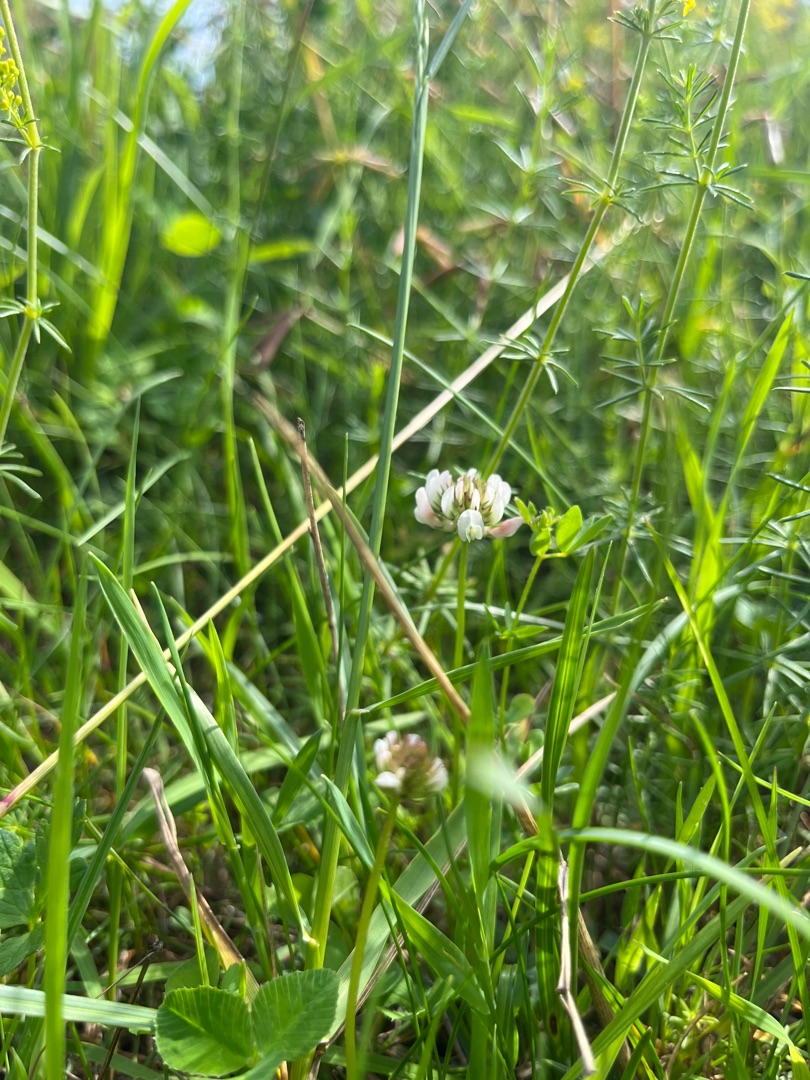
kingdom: Plantae
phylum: Tracheophyta
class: Magnoliopsida
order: Fabales
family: Fabaceae
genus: Trifolium
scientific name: Trifolium repens
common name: Hvid-kløver
